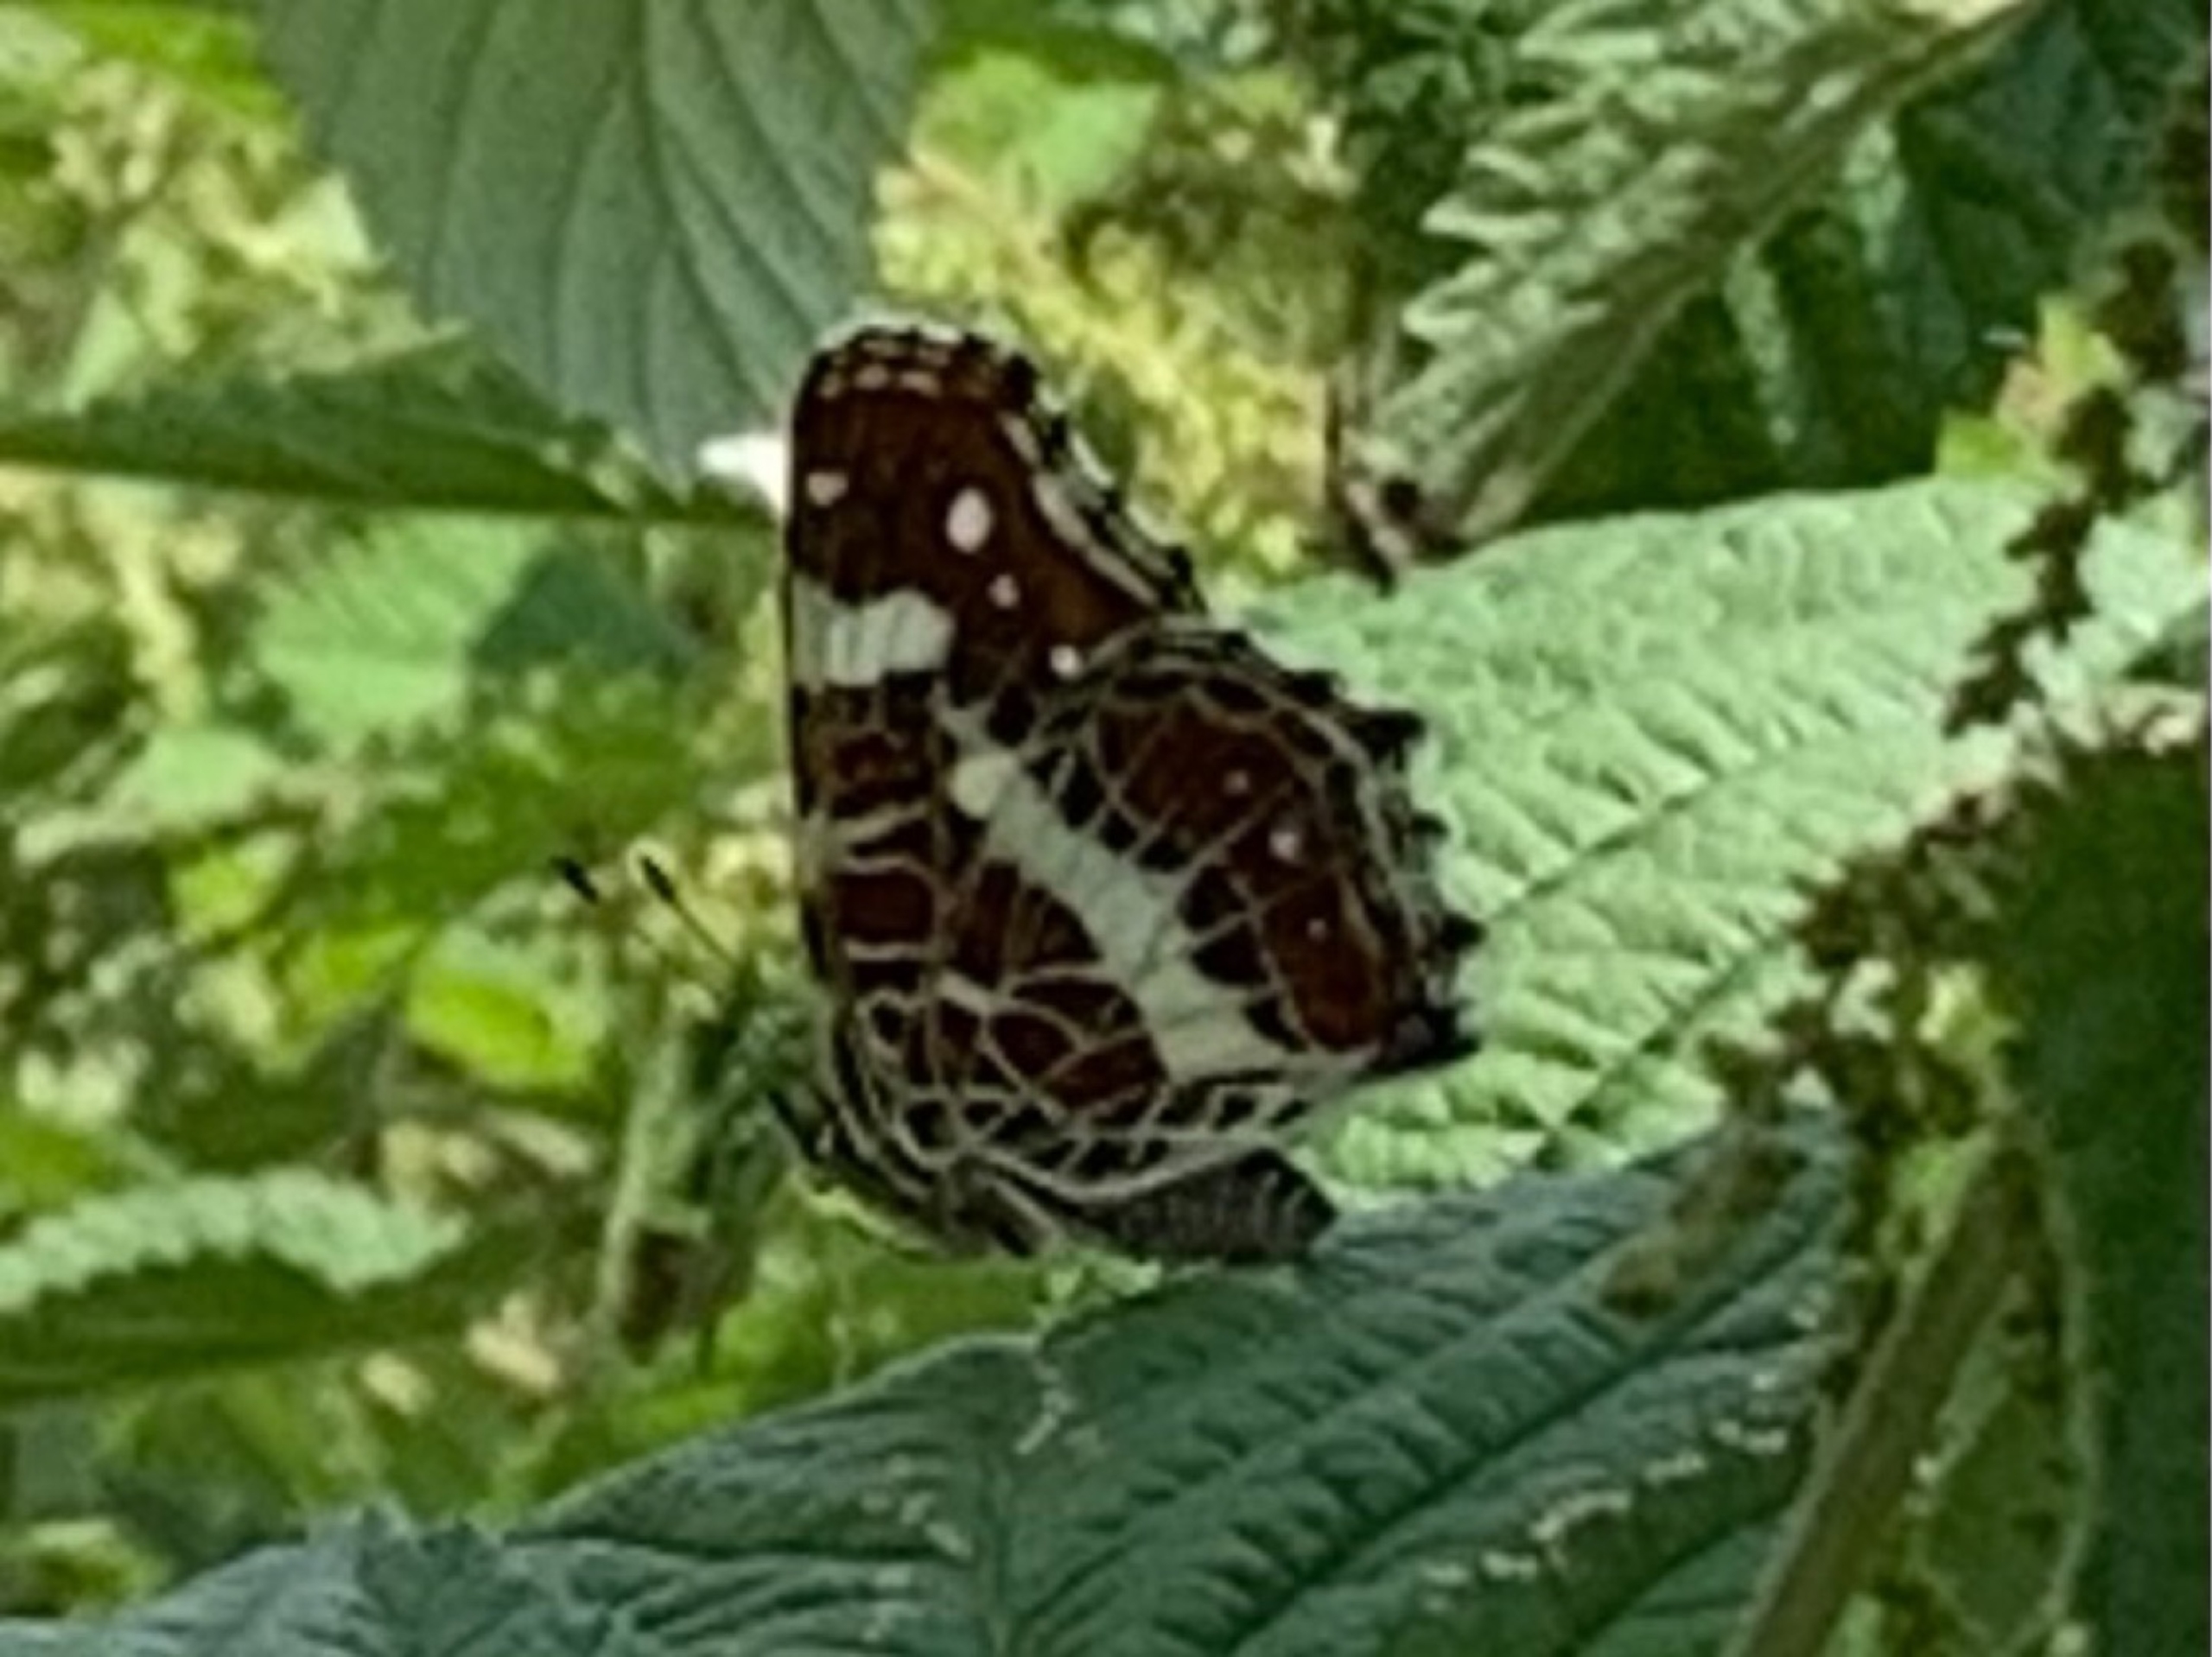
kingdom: Animalia
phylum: Arthropoda
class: Insecta
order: Lepidoptera
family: Nymphalidae
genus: Araschnia
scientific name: Araschnia levana
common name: Nældesommerfugl
